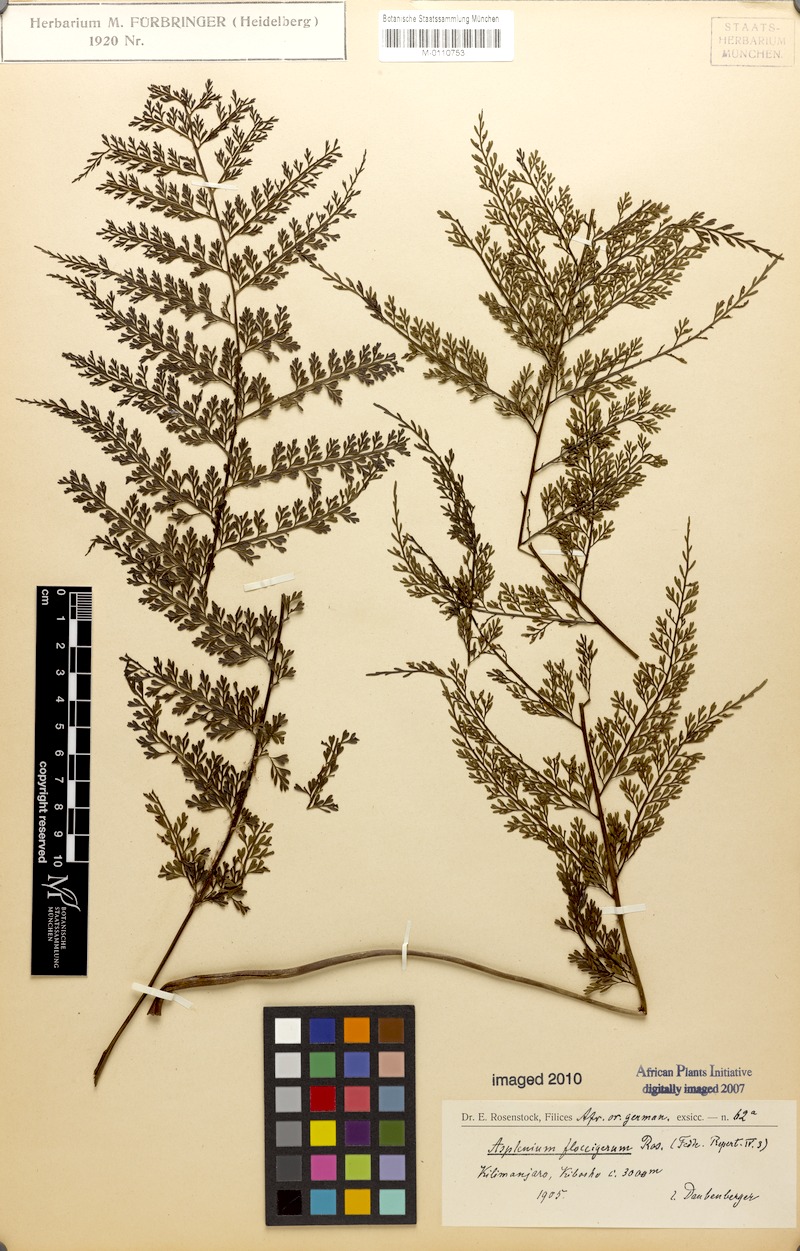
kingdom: Plantae
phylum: Tracheophyta
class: Polypodiopsida
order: Polypodiales
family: Aspleniaceae
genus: Asplenium
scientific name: Asplenium hypomelas
